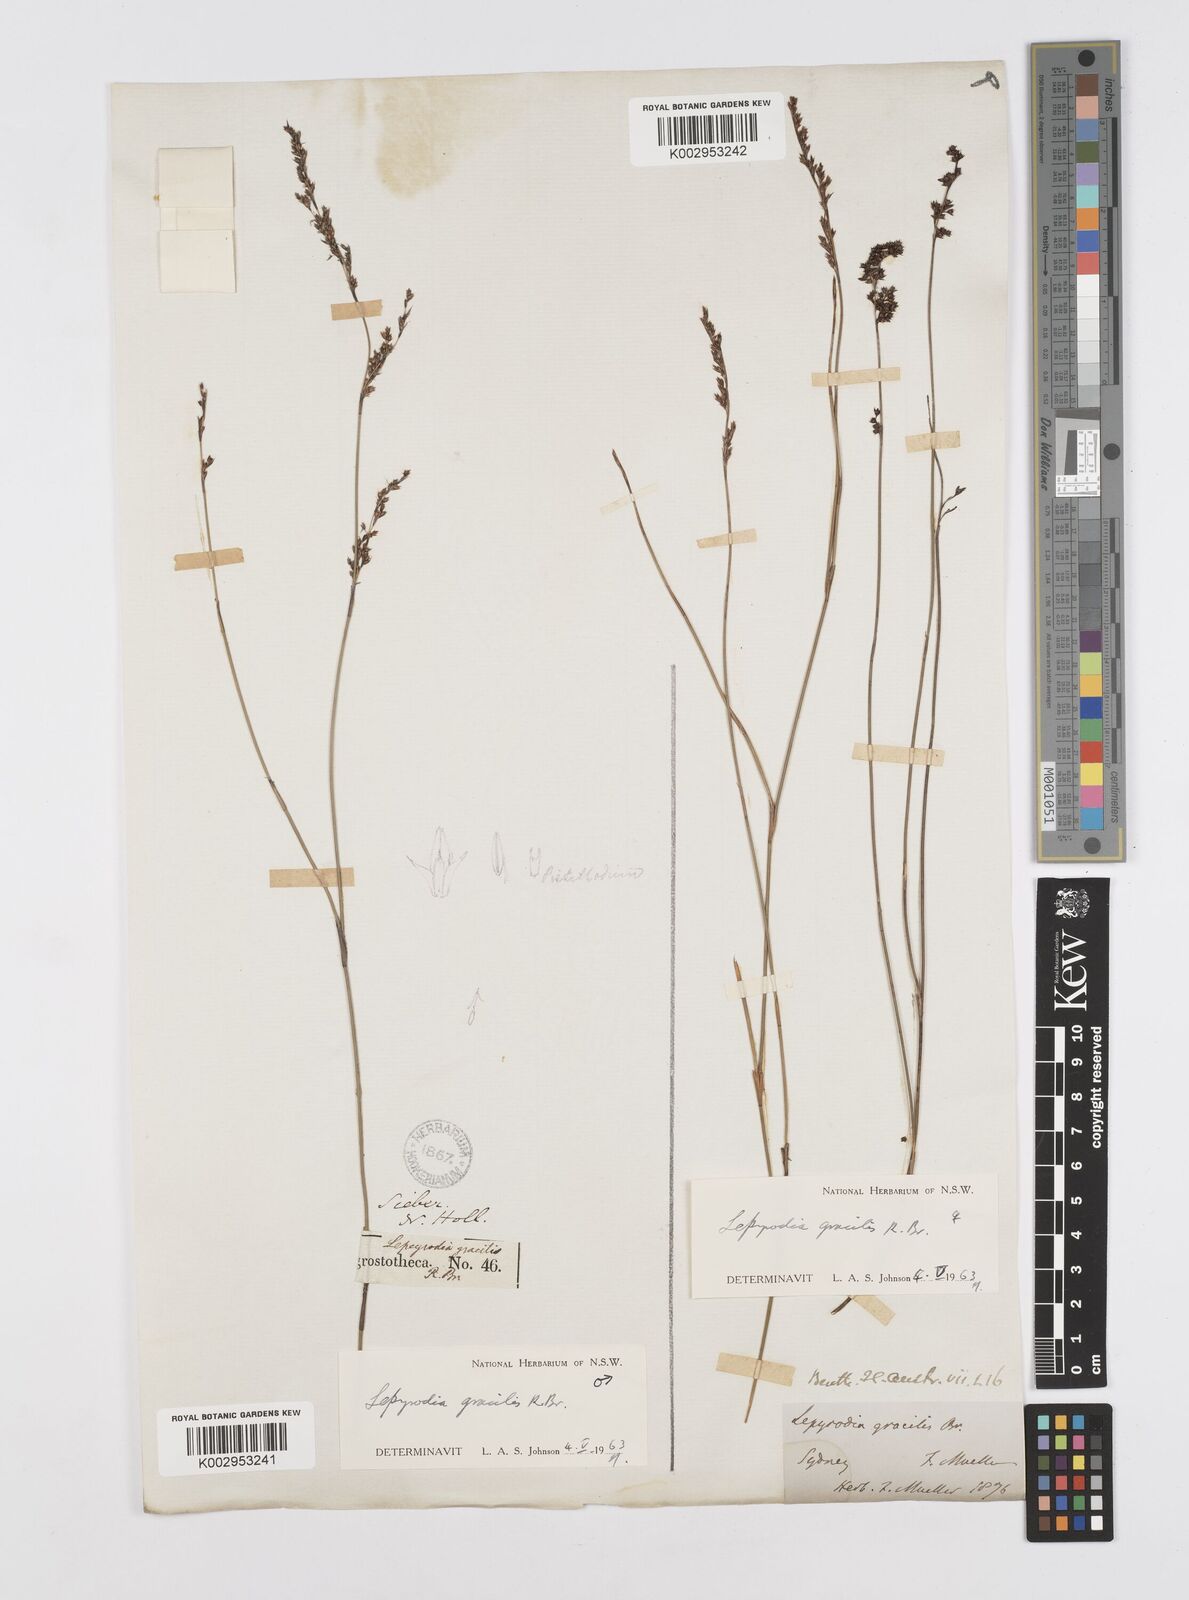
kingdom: Plantae
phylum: Tracheophyta
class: Liliopsida
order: Poales
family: Restionaceae
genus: Sporadanthus
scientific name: Sporadanthus gracilis
